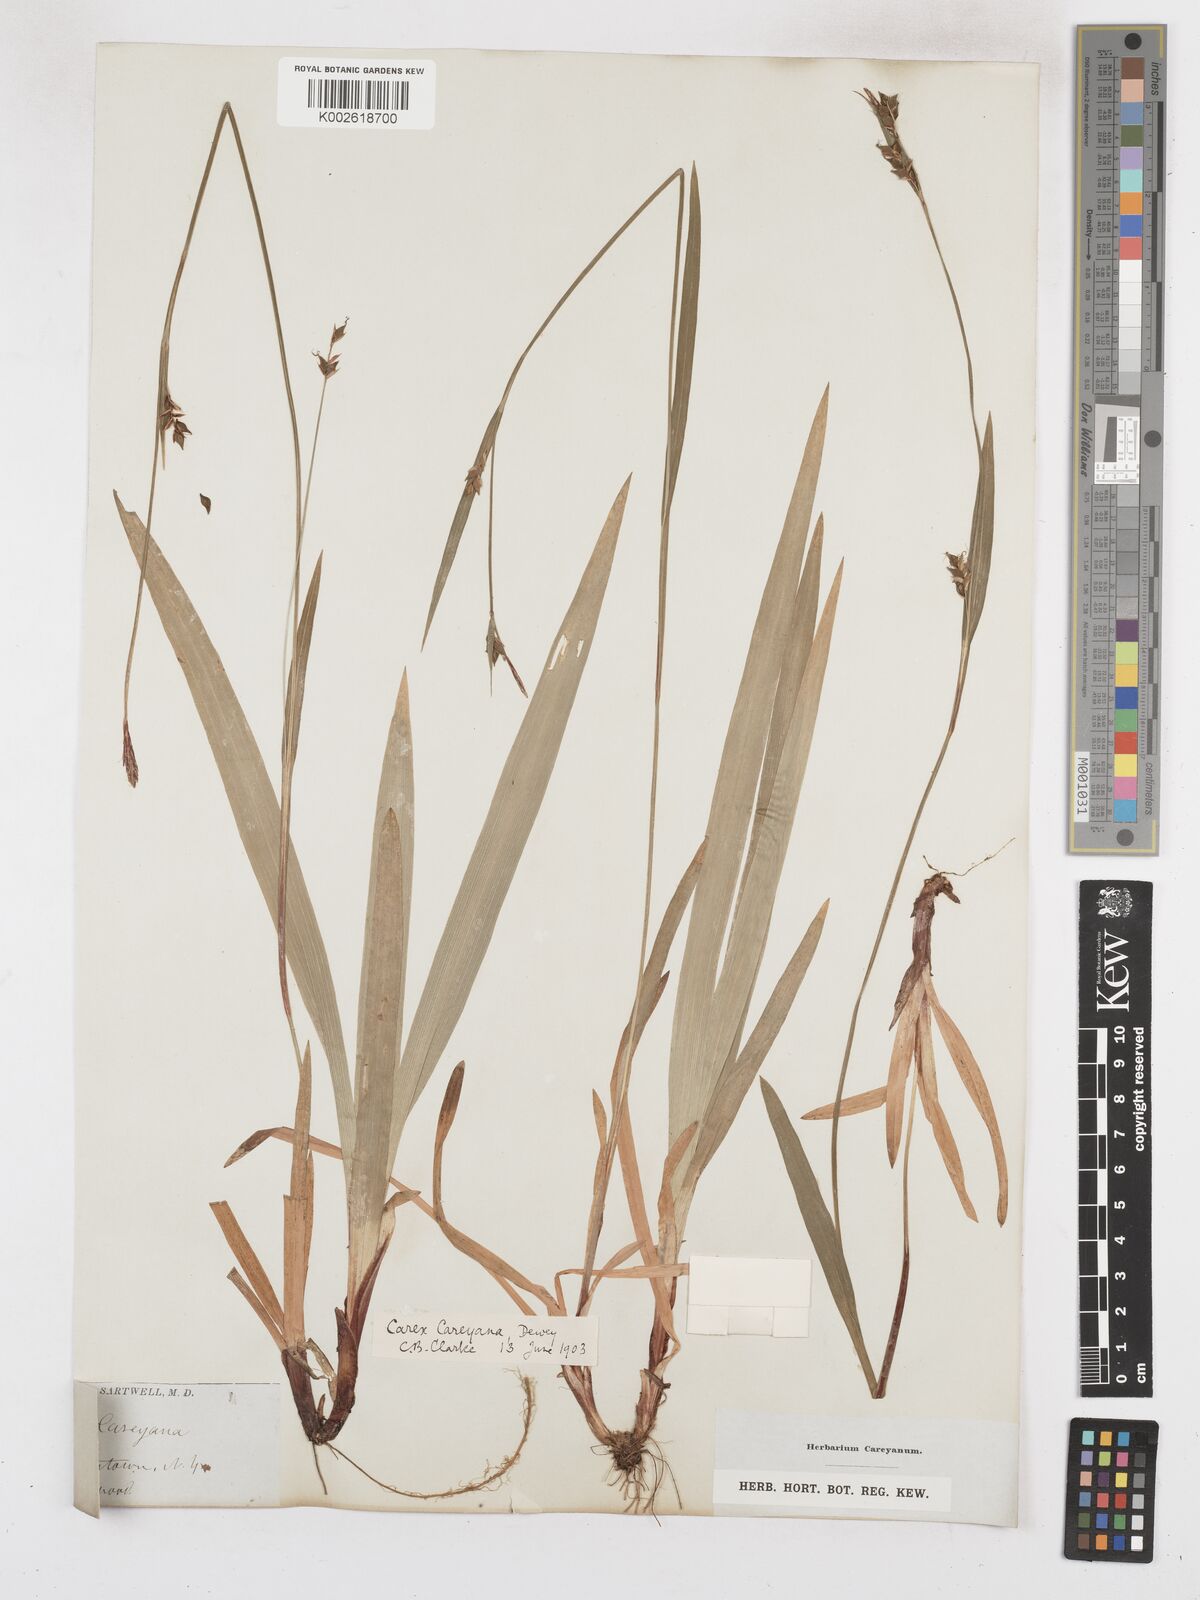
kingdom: Plantae
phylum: Tracheophyta
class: Liliopsida
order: Poales
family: Cyperaceae
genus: Carex
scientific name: Carex careyana
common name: Carey's sedge
